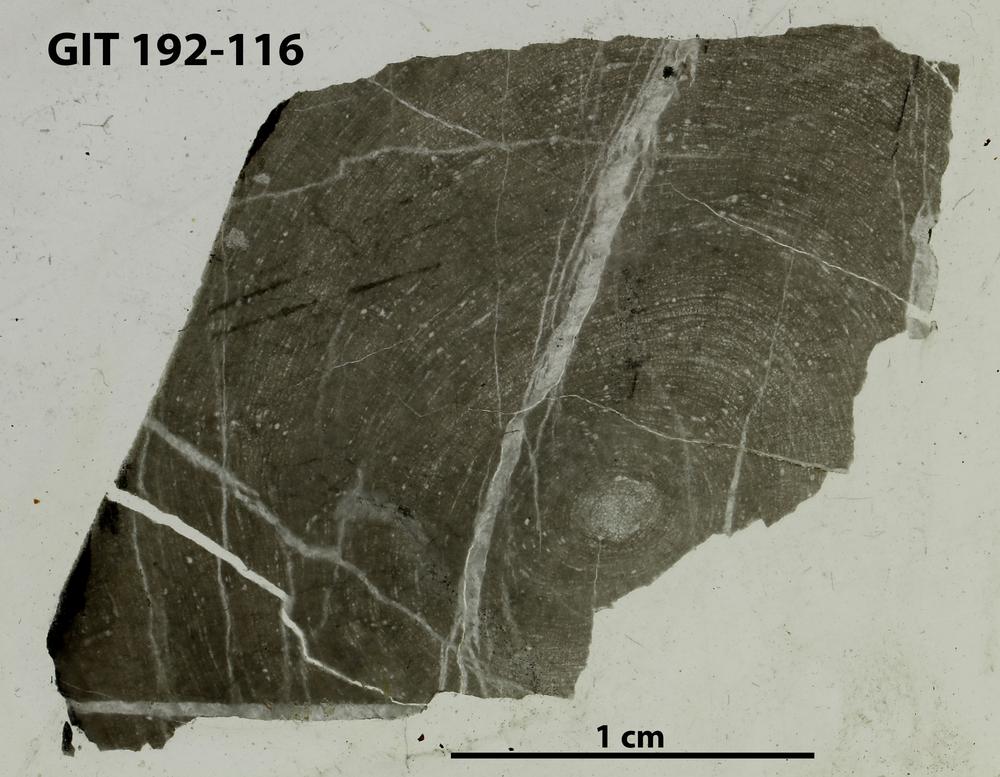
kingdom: Animalia
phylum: Porifera
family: Densastromatidae
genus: Araneosustroma
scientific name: Araneosustroma
